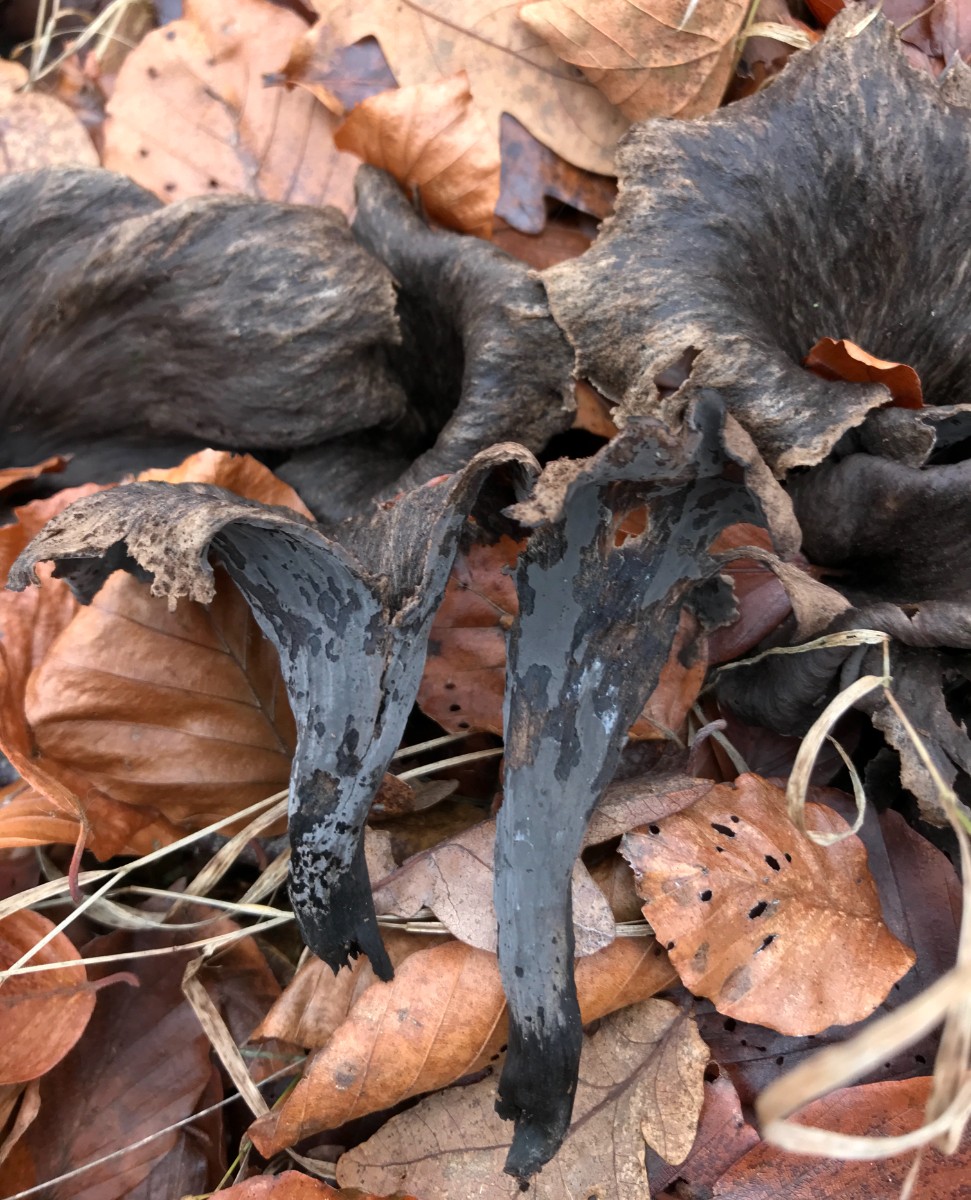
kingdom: Fungi
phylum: Basidiomycota
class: Agaricomycetes
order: Cantharellales
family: Hydnaceae
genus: Craterellus
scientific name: Craterellus cornucopioides
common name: trompetsvamp
